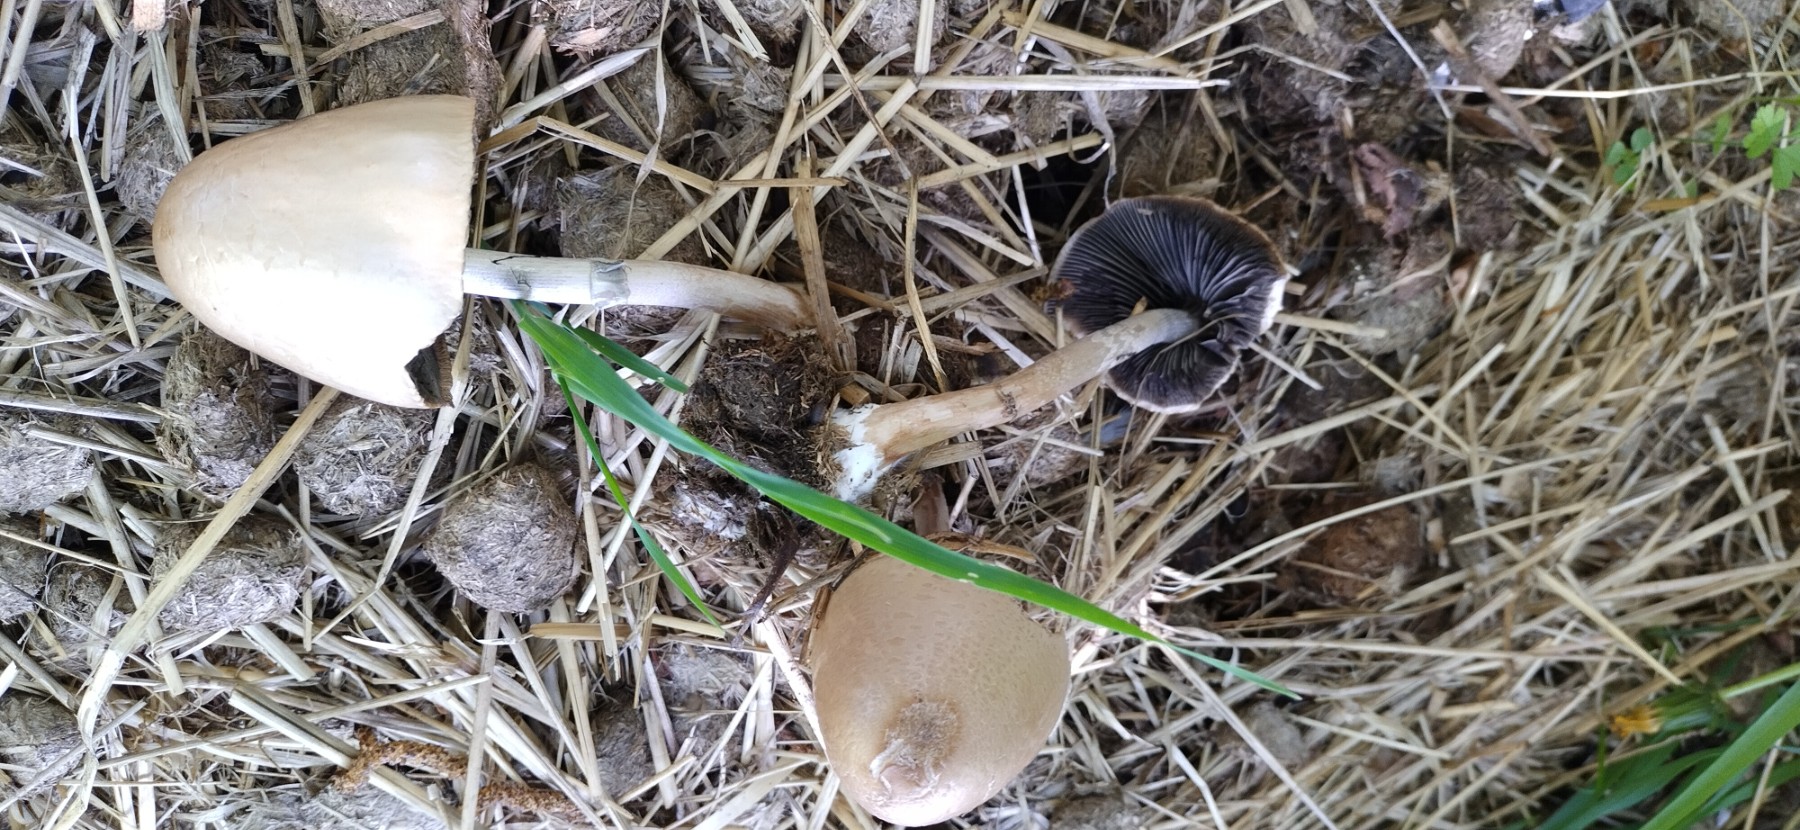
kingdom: Fungi
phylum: Basidiomycota
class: Agaricomycetes
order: Agaricales
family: Bolbitiaceae
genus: Panaeolus
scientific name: Panaeolus semiovatus
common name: ring-glanshat
